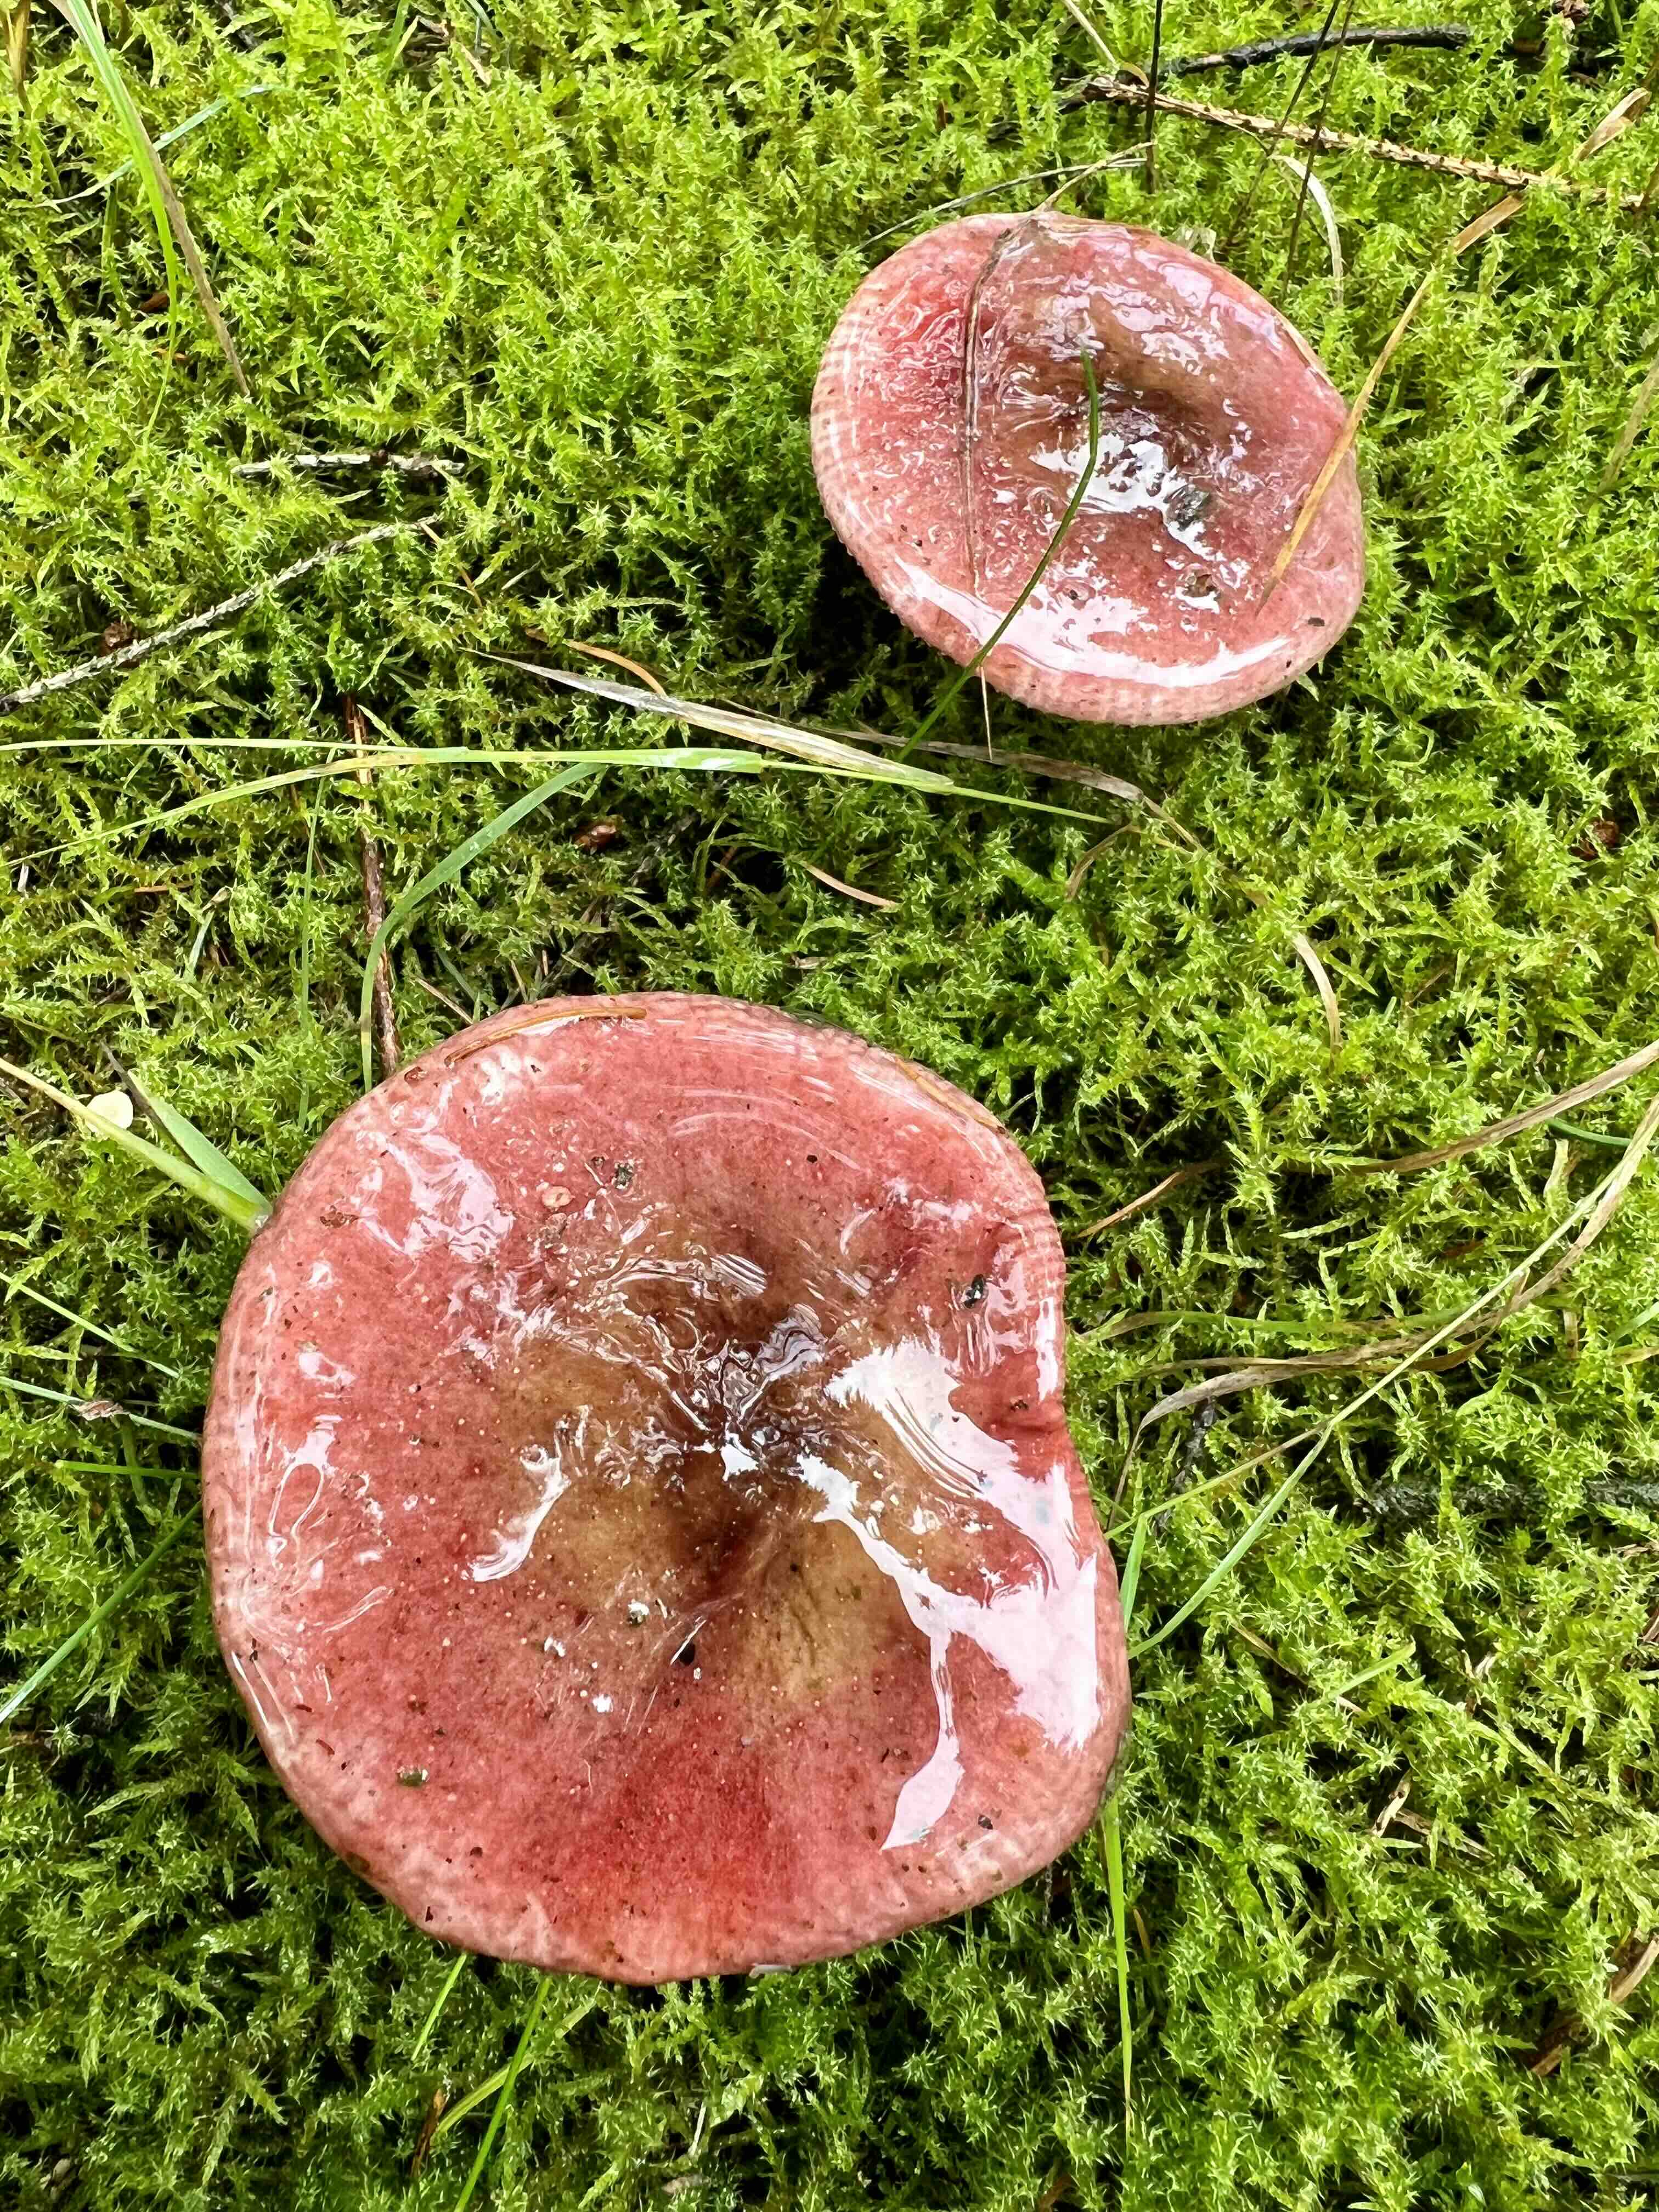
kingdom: Fungi
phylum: Basidiomycota
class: Agaricomycetes
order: Russulales
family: Russulaceae
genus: Russula
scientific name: Russula
